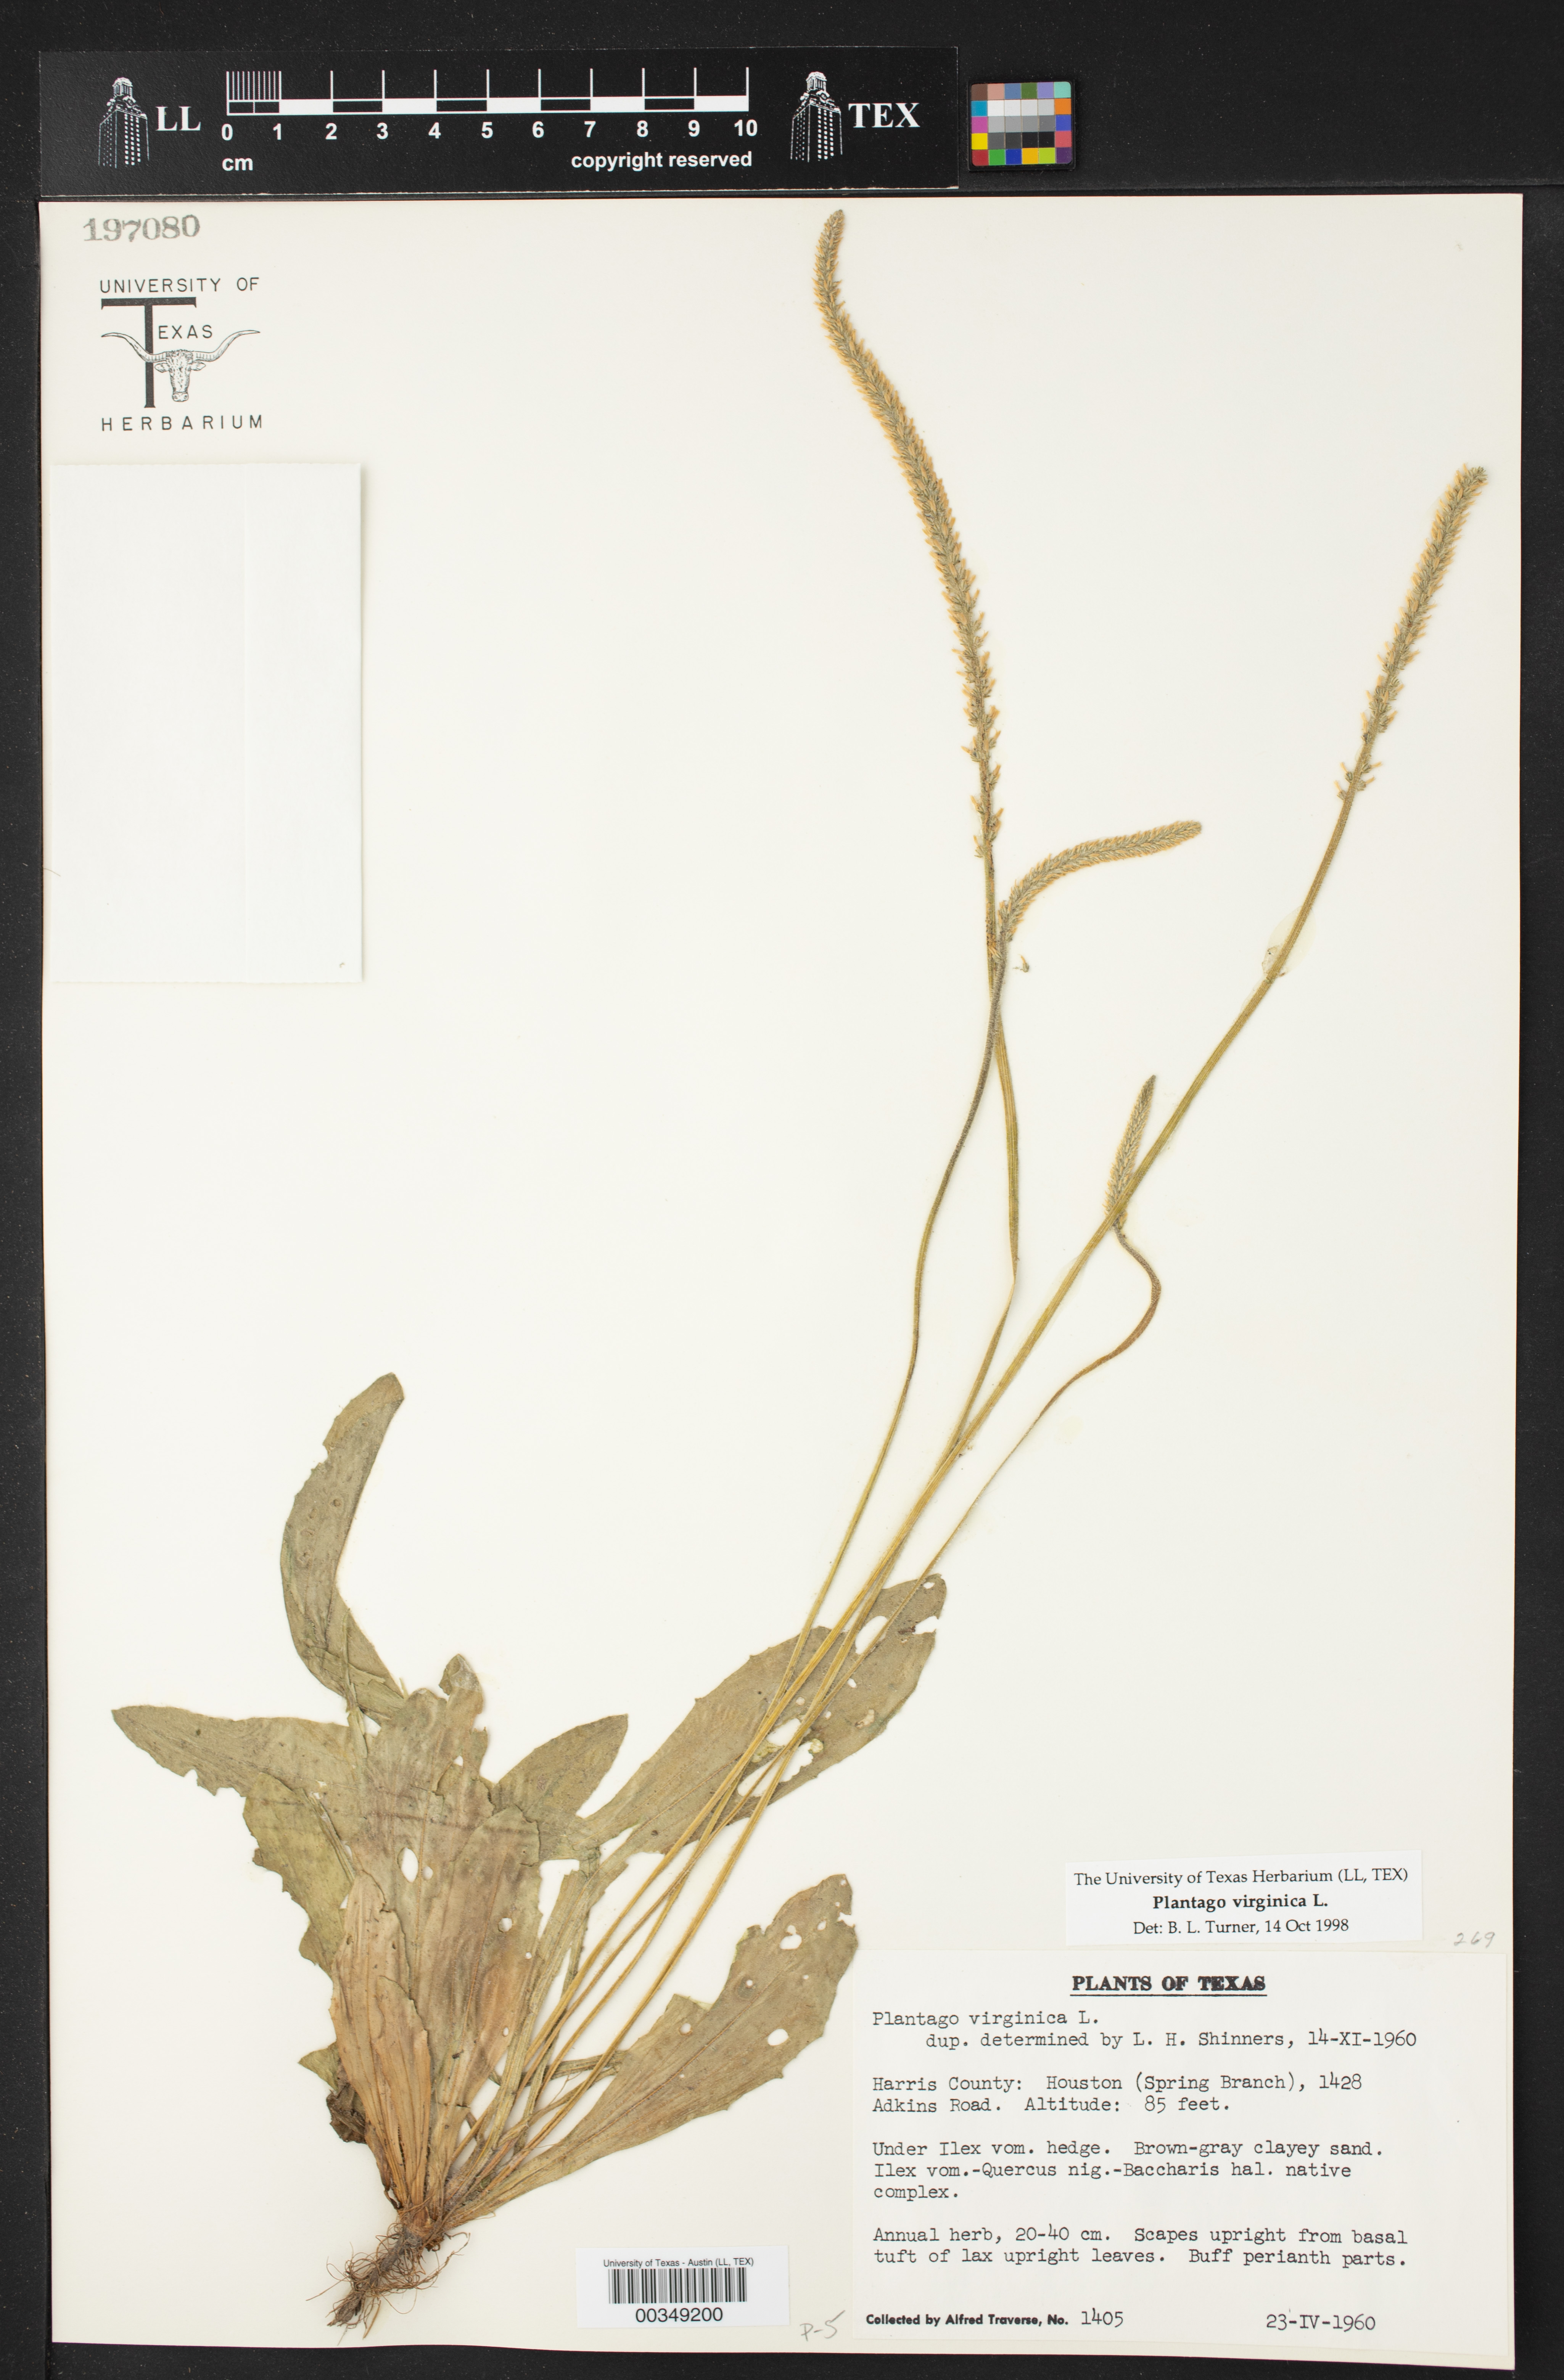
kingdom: Plantae
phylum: Tracheophyta
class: Magnoliopsida
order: Lamiales
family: Plantaginaceae
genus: Plantago
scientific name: Plantago virginica
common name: Hoary plantain
